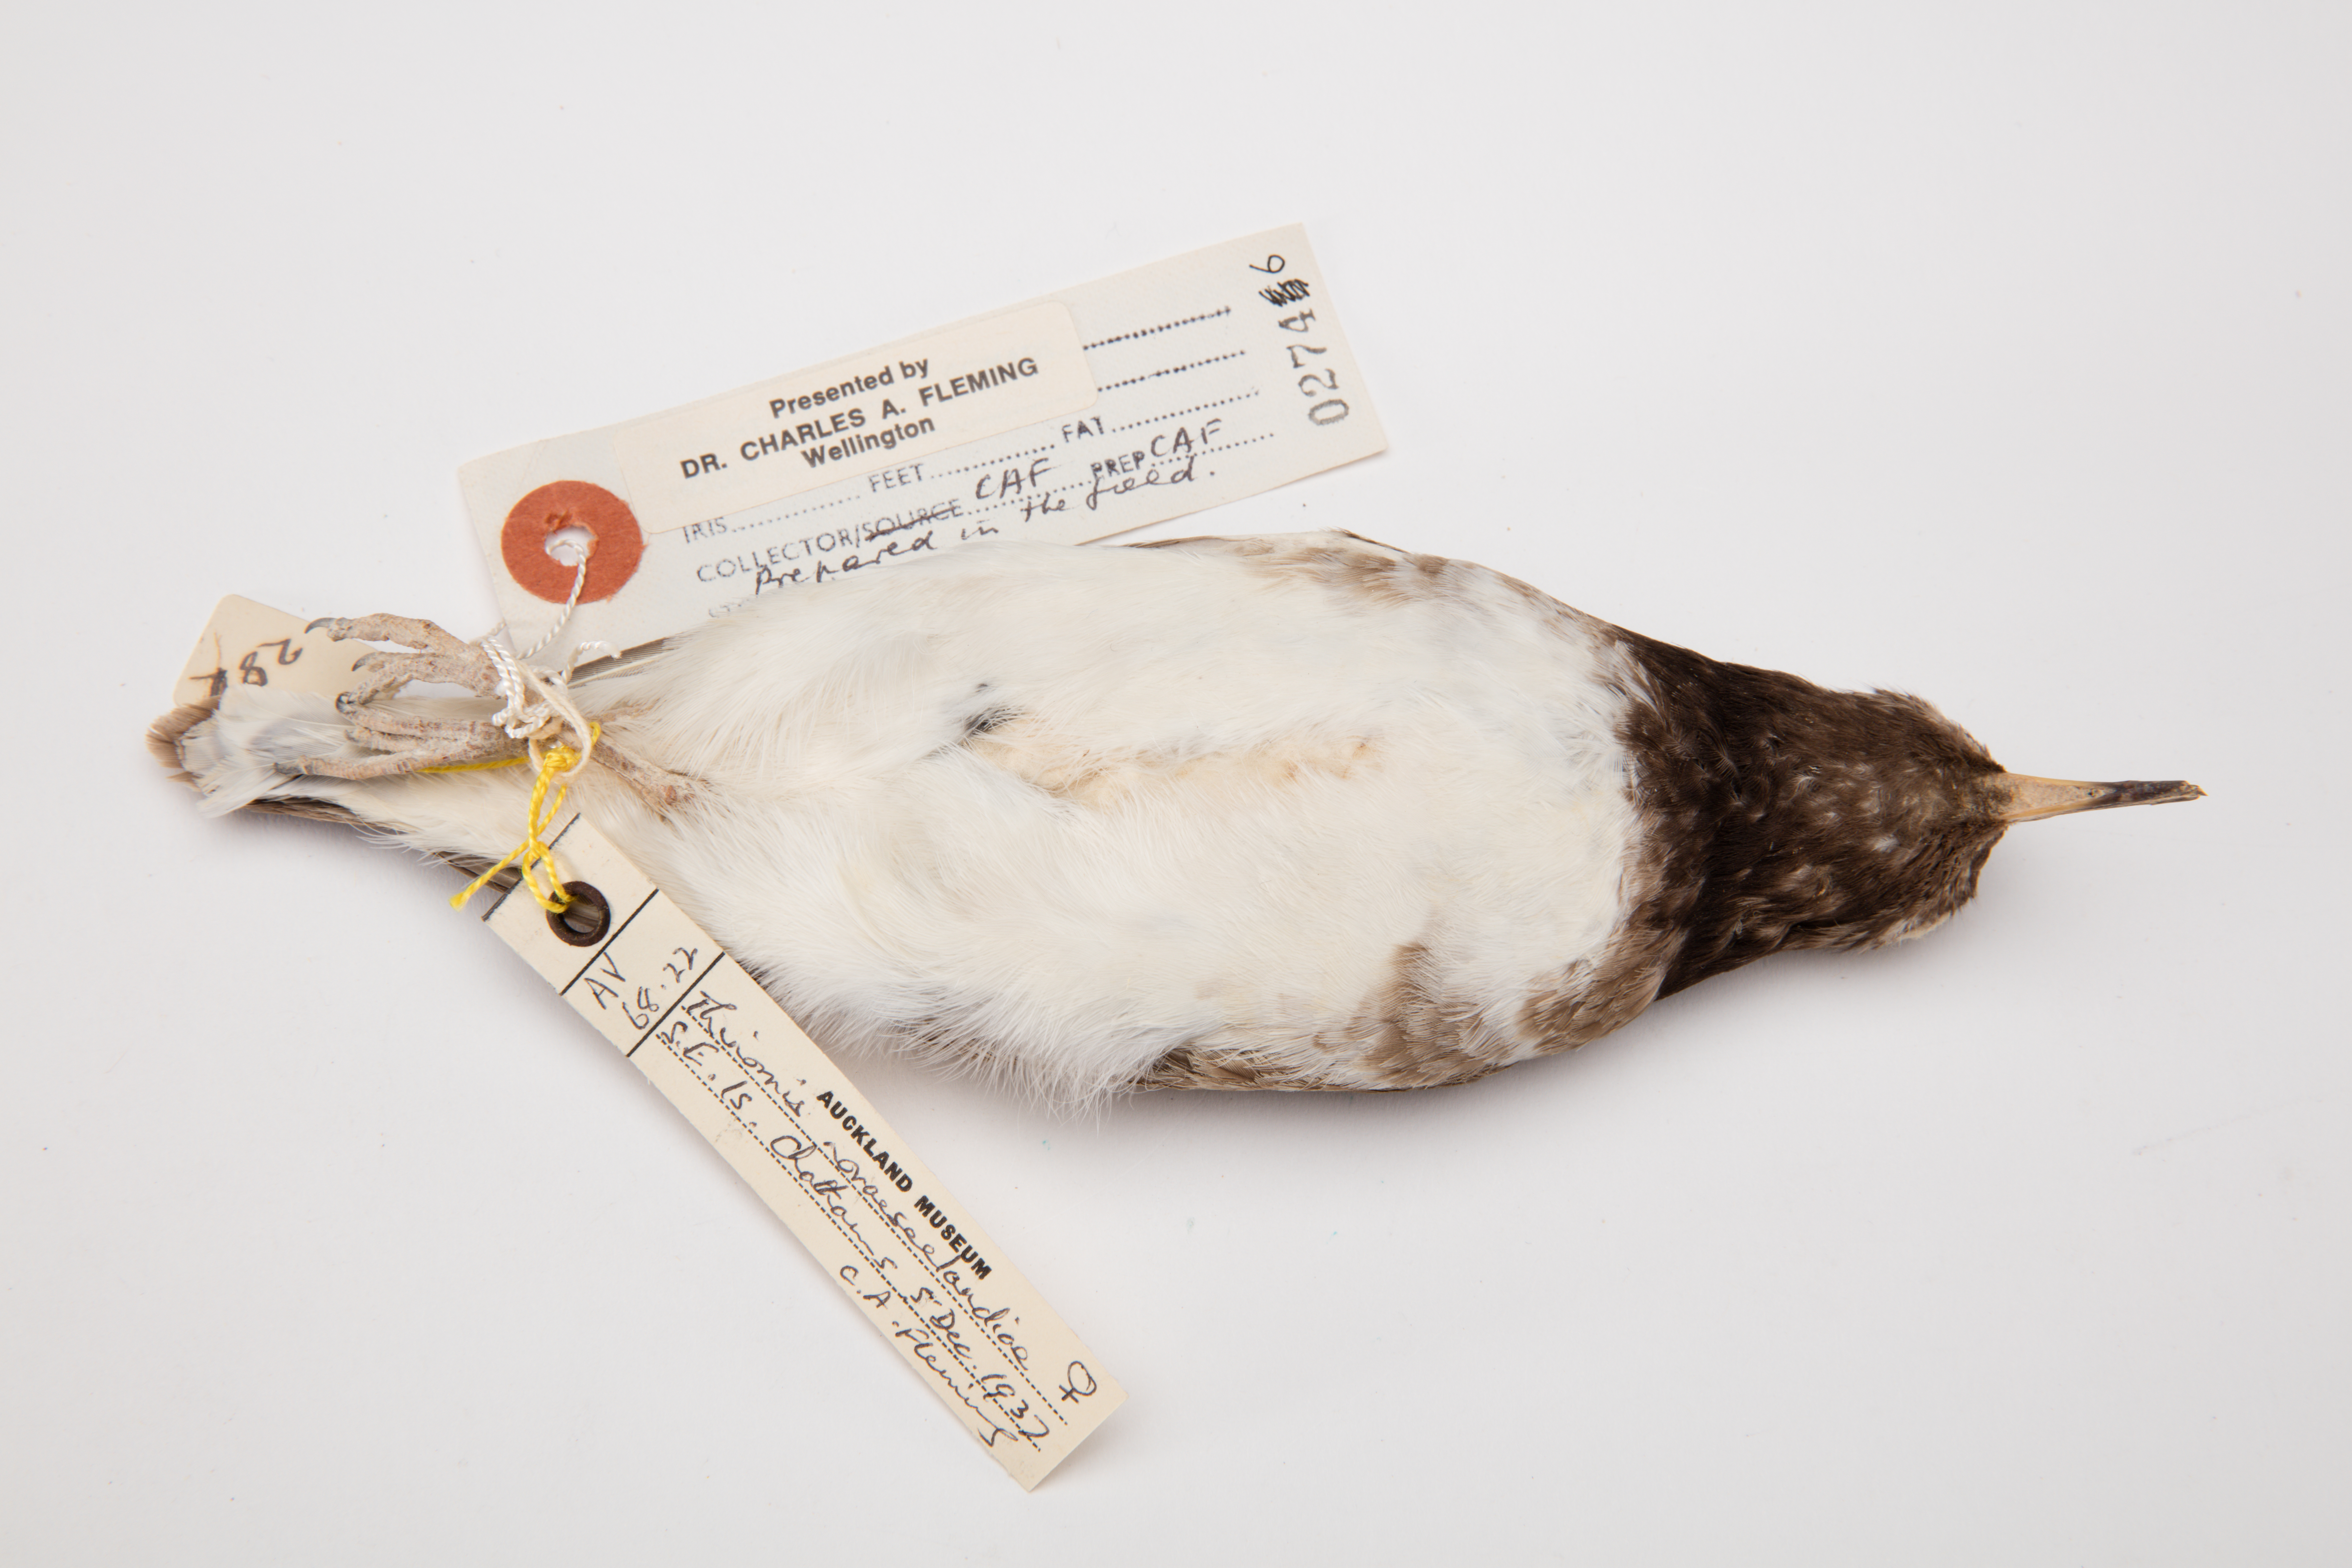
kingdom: Animalia
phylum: Chordata
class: Aves
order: Charadriiformes
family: Charadriidae
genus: Thinornis
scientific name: Thinornis novaeseelandiae
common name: Shore dotterel
